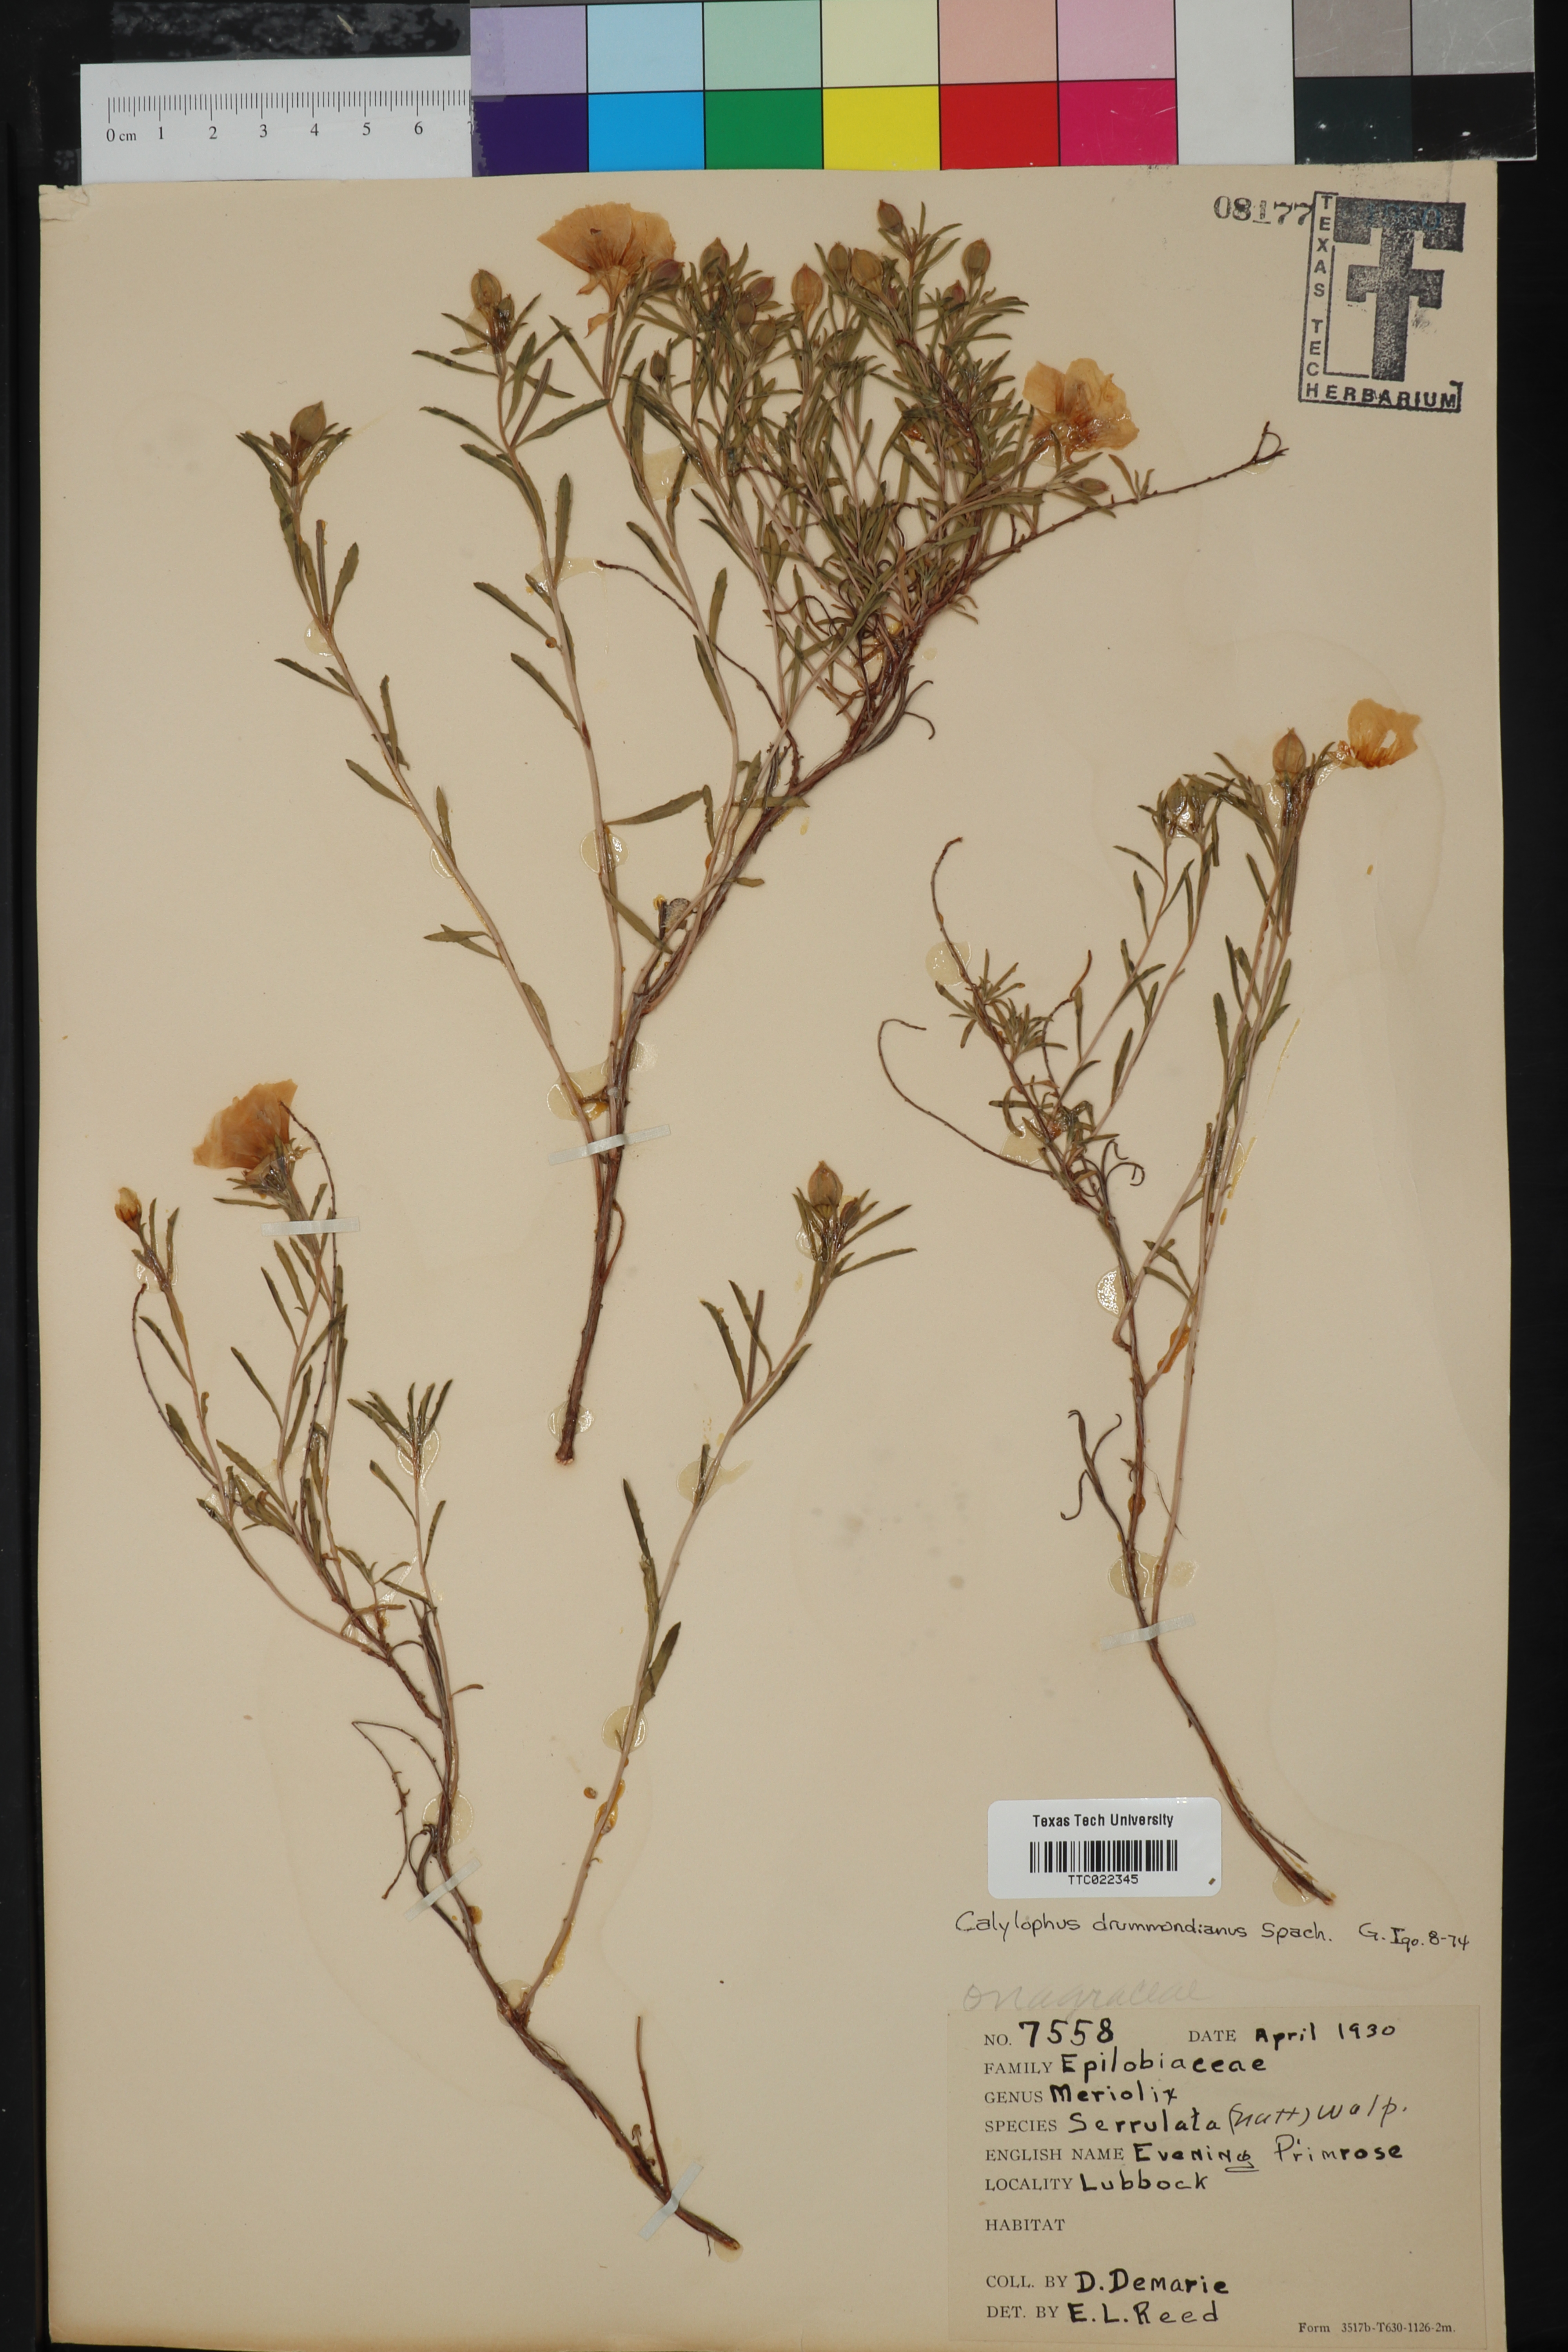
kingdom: Plantae
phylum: Tracheophyta
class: Magnoliopsida
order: Myrtales
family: Onagraceae
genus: Oenothera
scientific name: Oenothera serrulata
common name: Half-shrub calylophus
